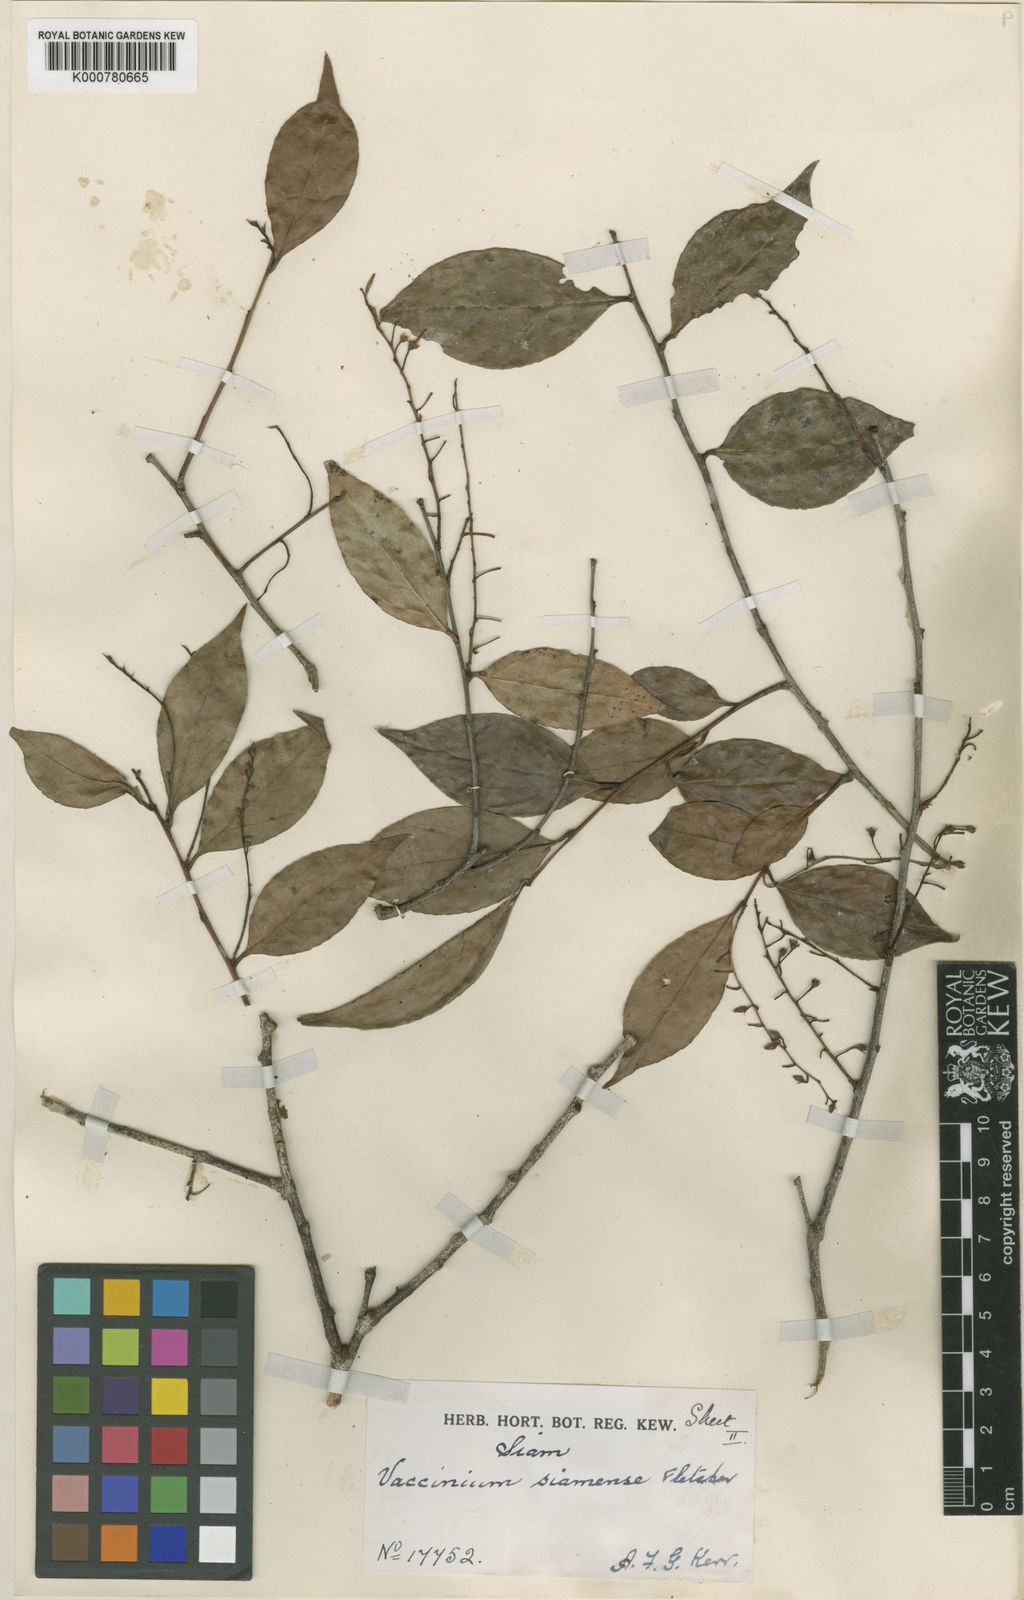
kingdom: Plantae
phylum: Tracheophyta
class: Magnoliopsida
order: Ericales
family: Ericaceae
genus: Vaccinium
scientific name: Vaccinium sprengelii
